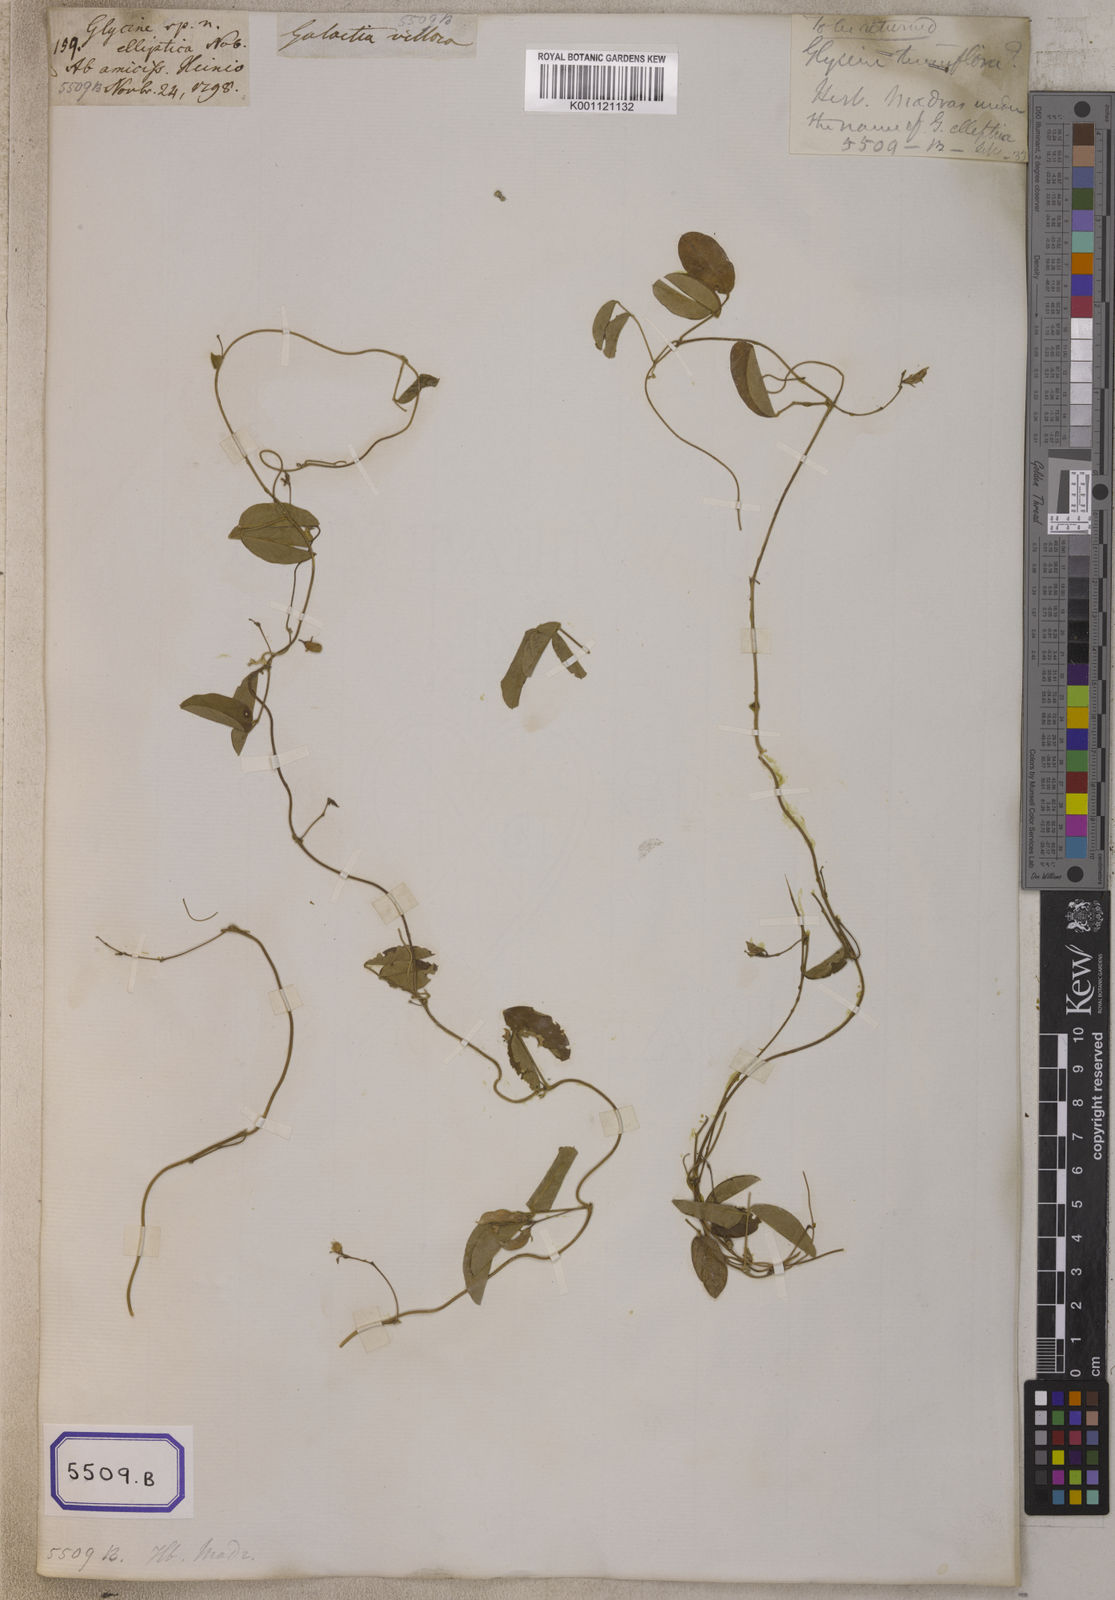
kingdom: Plantae
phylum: Tracheophyta
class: Magnoliopsida
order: Fabales
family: Fabaceae
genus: Galactia
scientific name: Galactia striata
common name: Florida hammock milkpea
